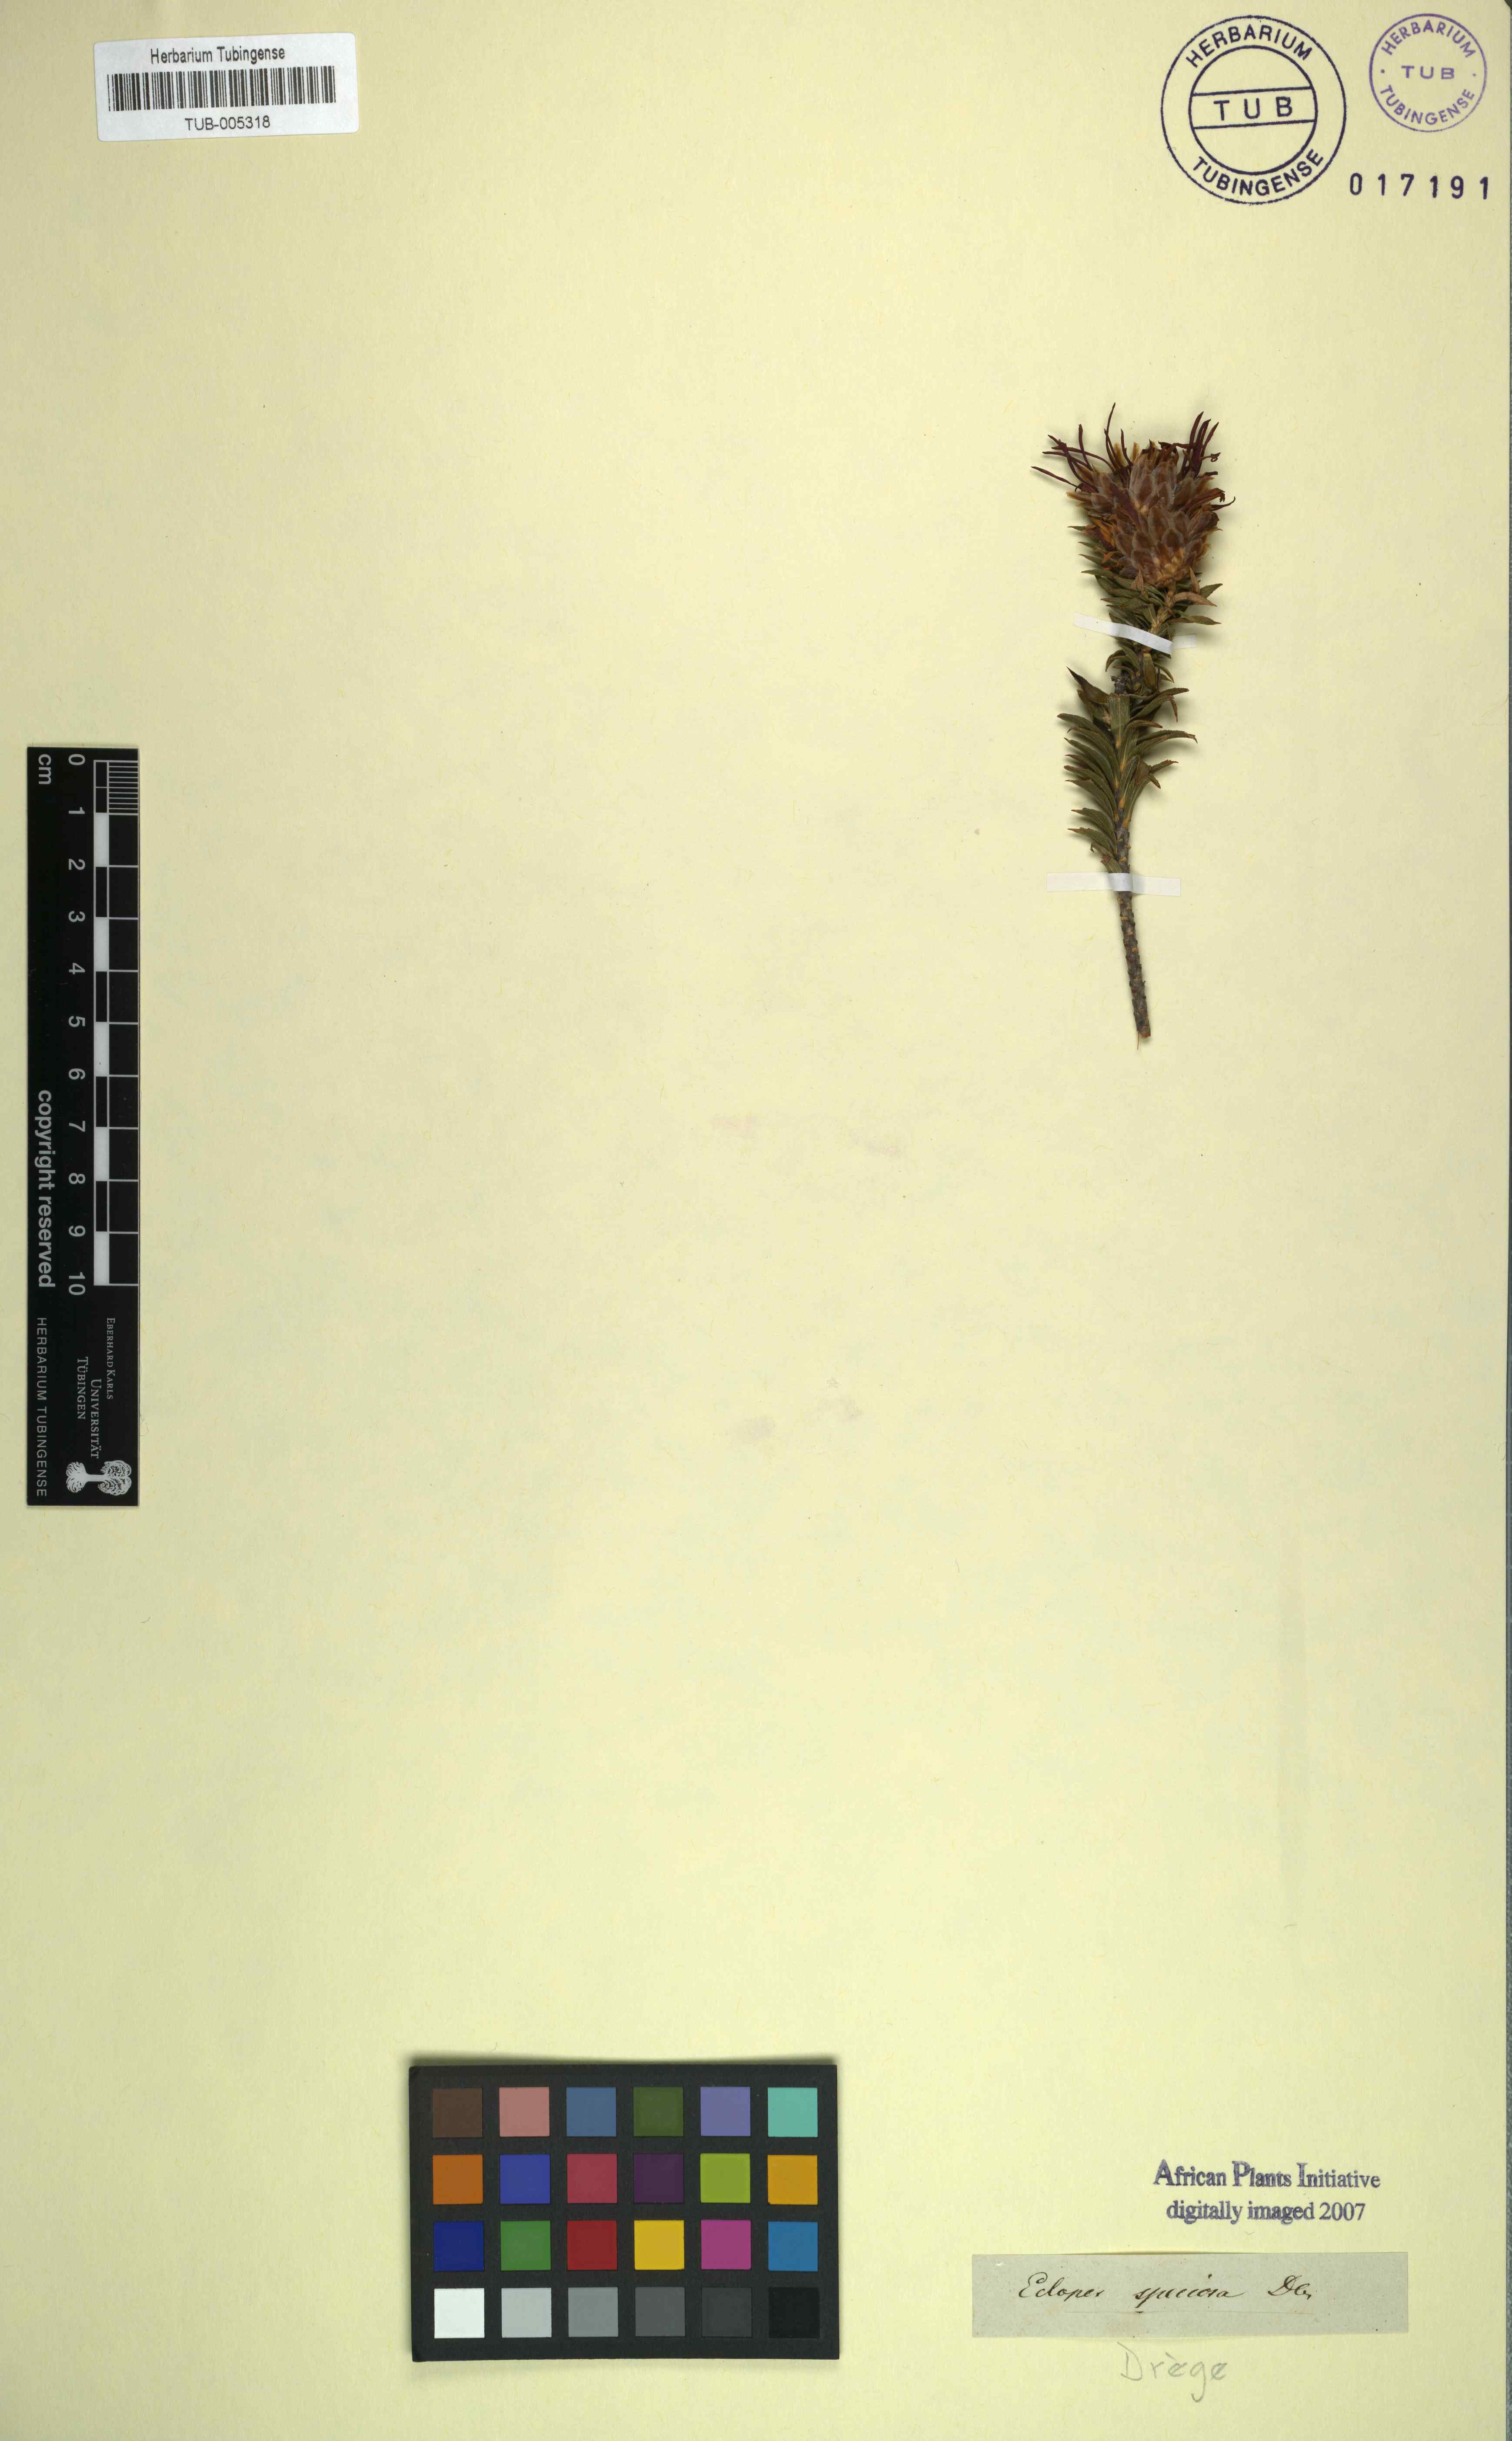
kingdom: Plantae
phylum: Tracheophyta
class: Magnoliopsida
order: Asterales
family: Asteraceae
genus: Oedera
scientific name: Oedera speciosa
